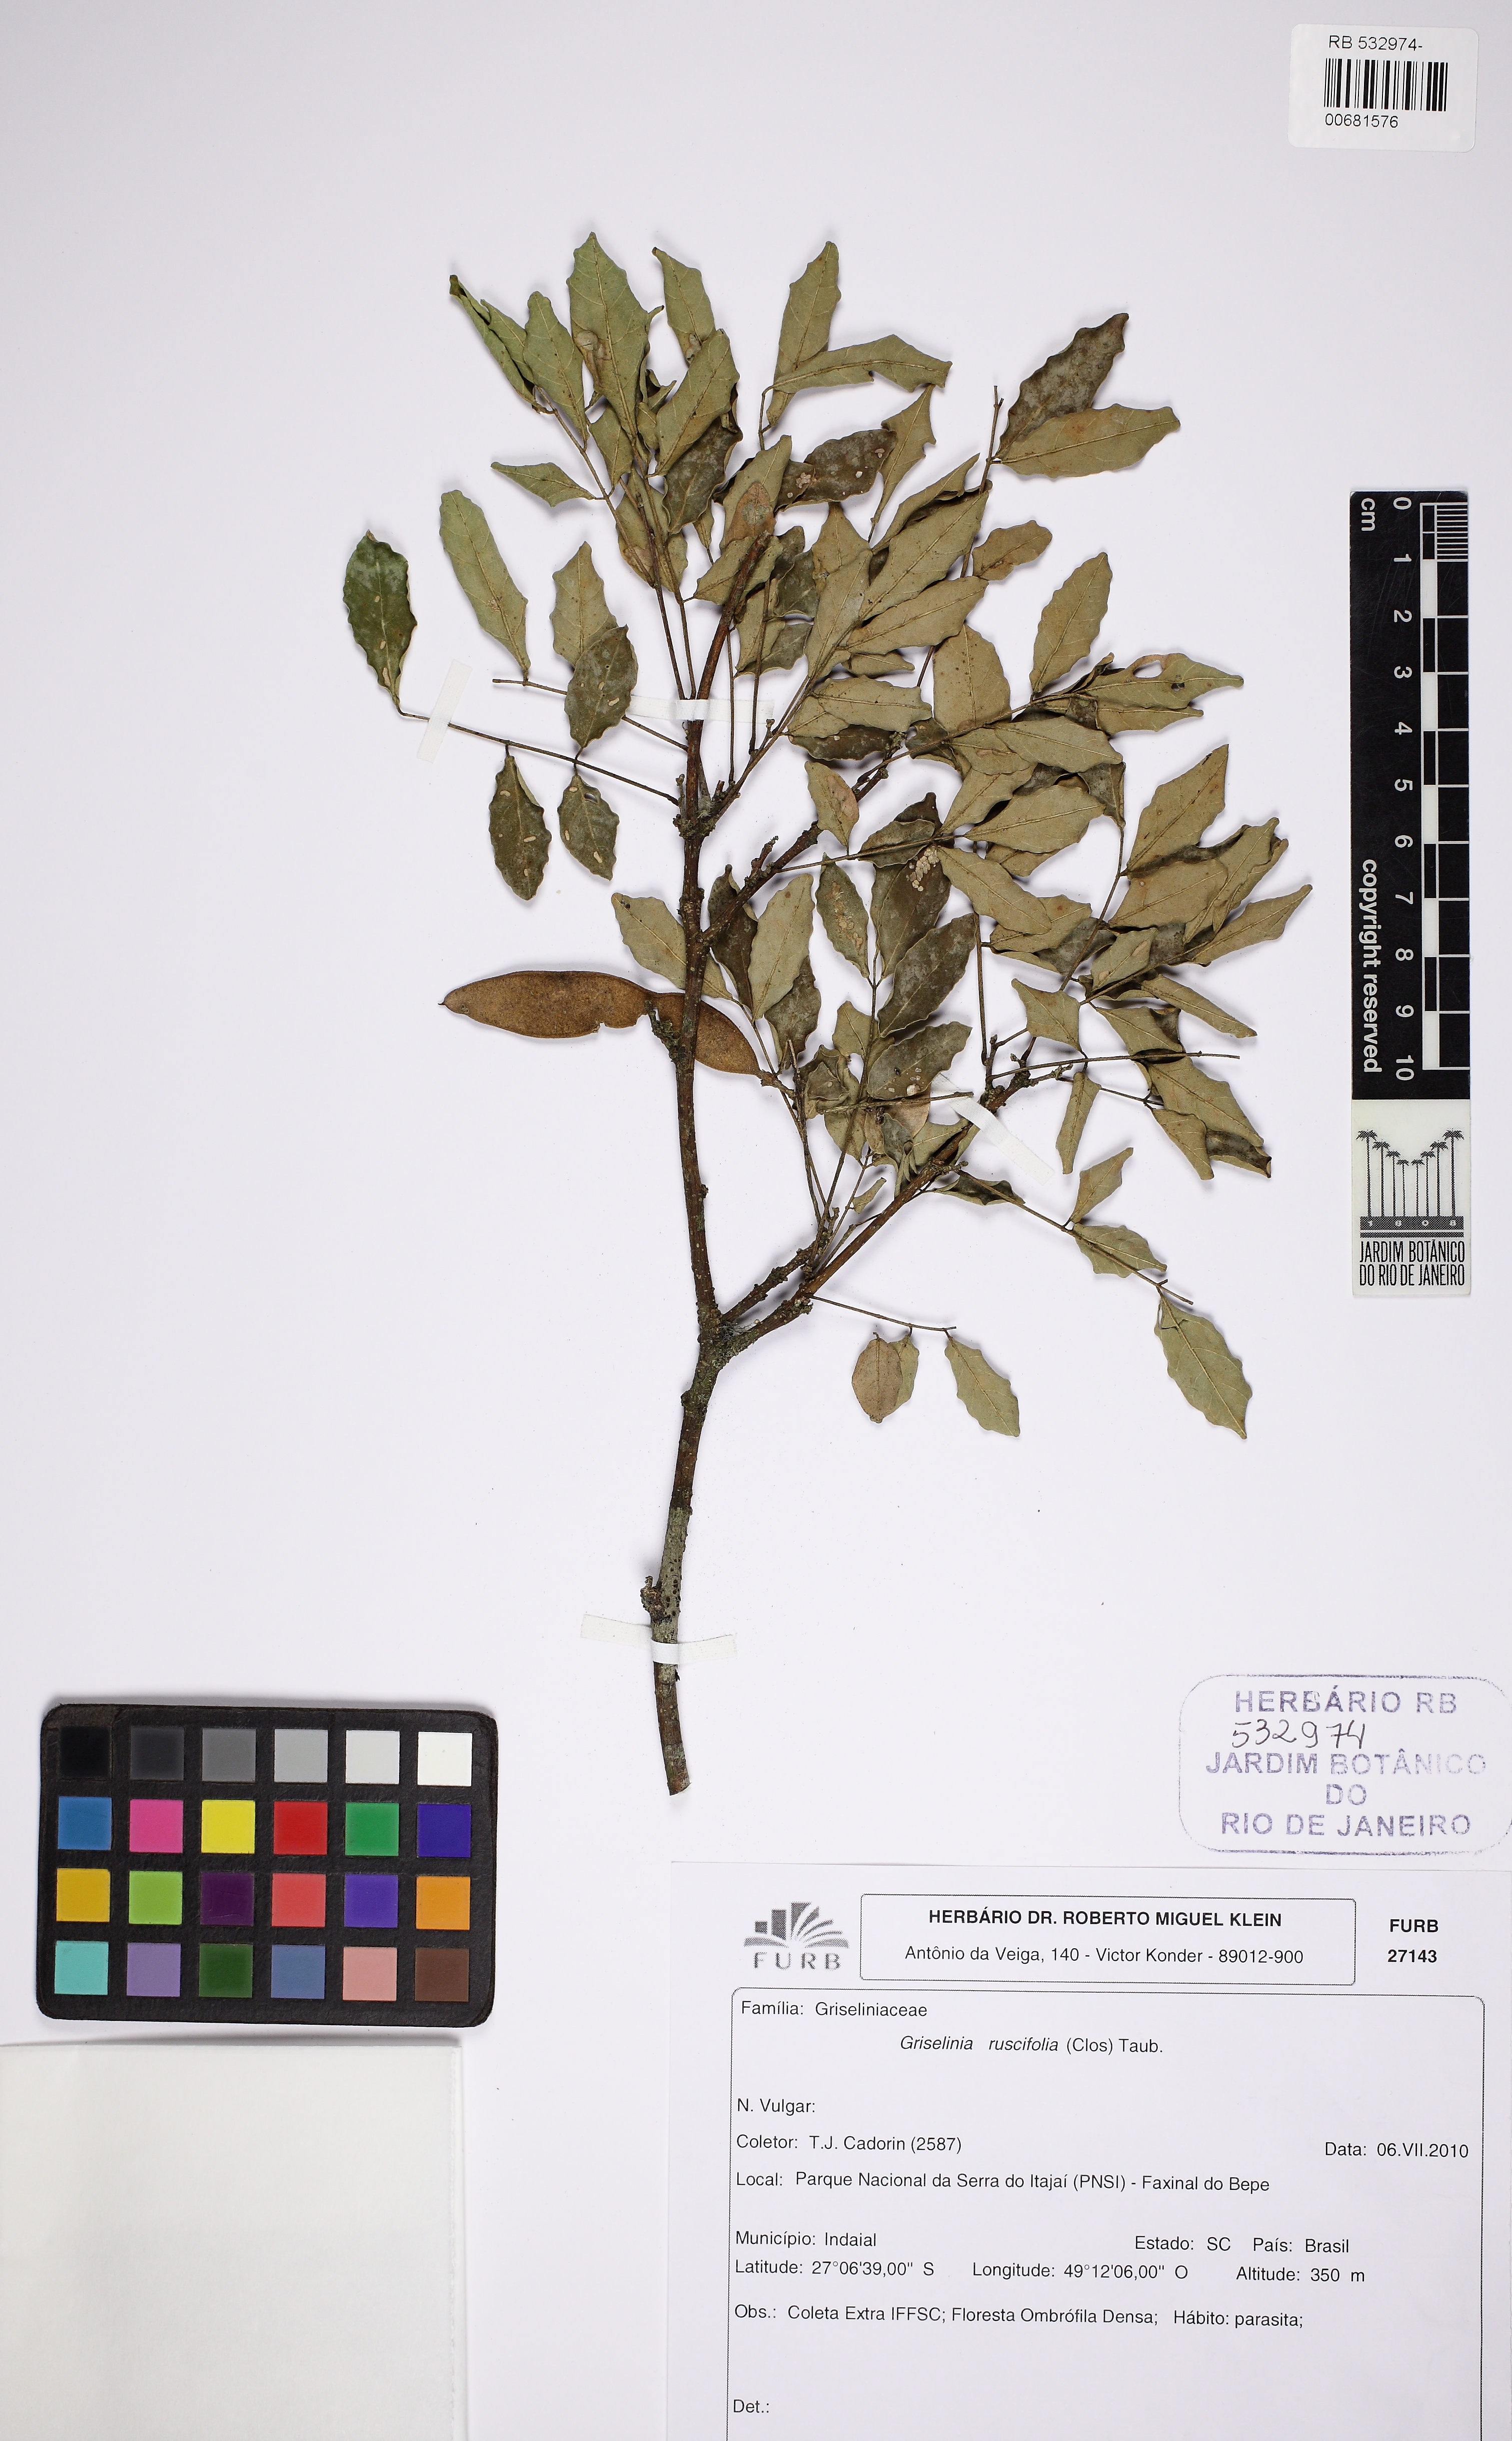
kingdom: Plantae
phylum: Tracheophyta
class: Magnoliopsida
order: Apiales
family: Griseliniaceae
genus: Griselinia
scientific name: Griselinia ruscifolia
